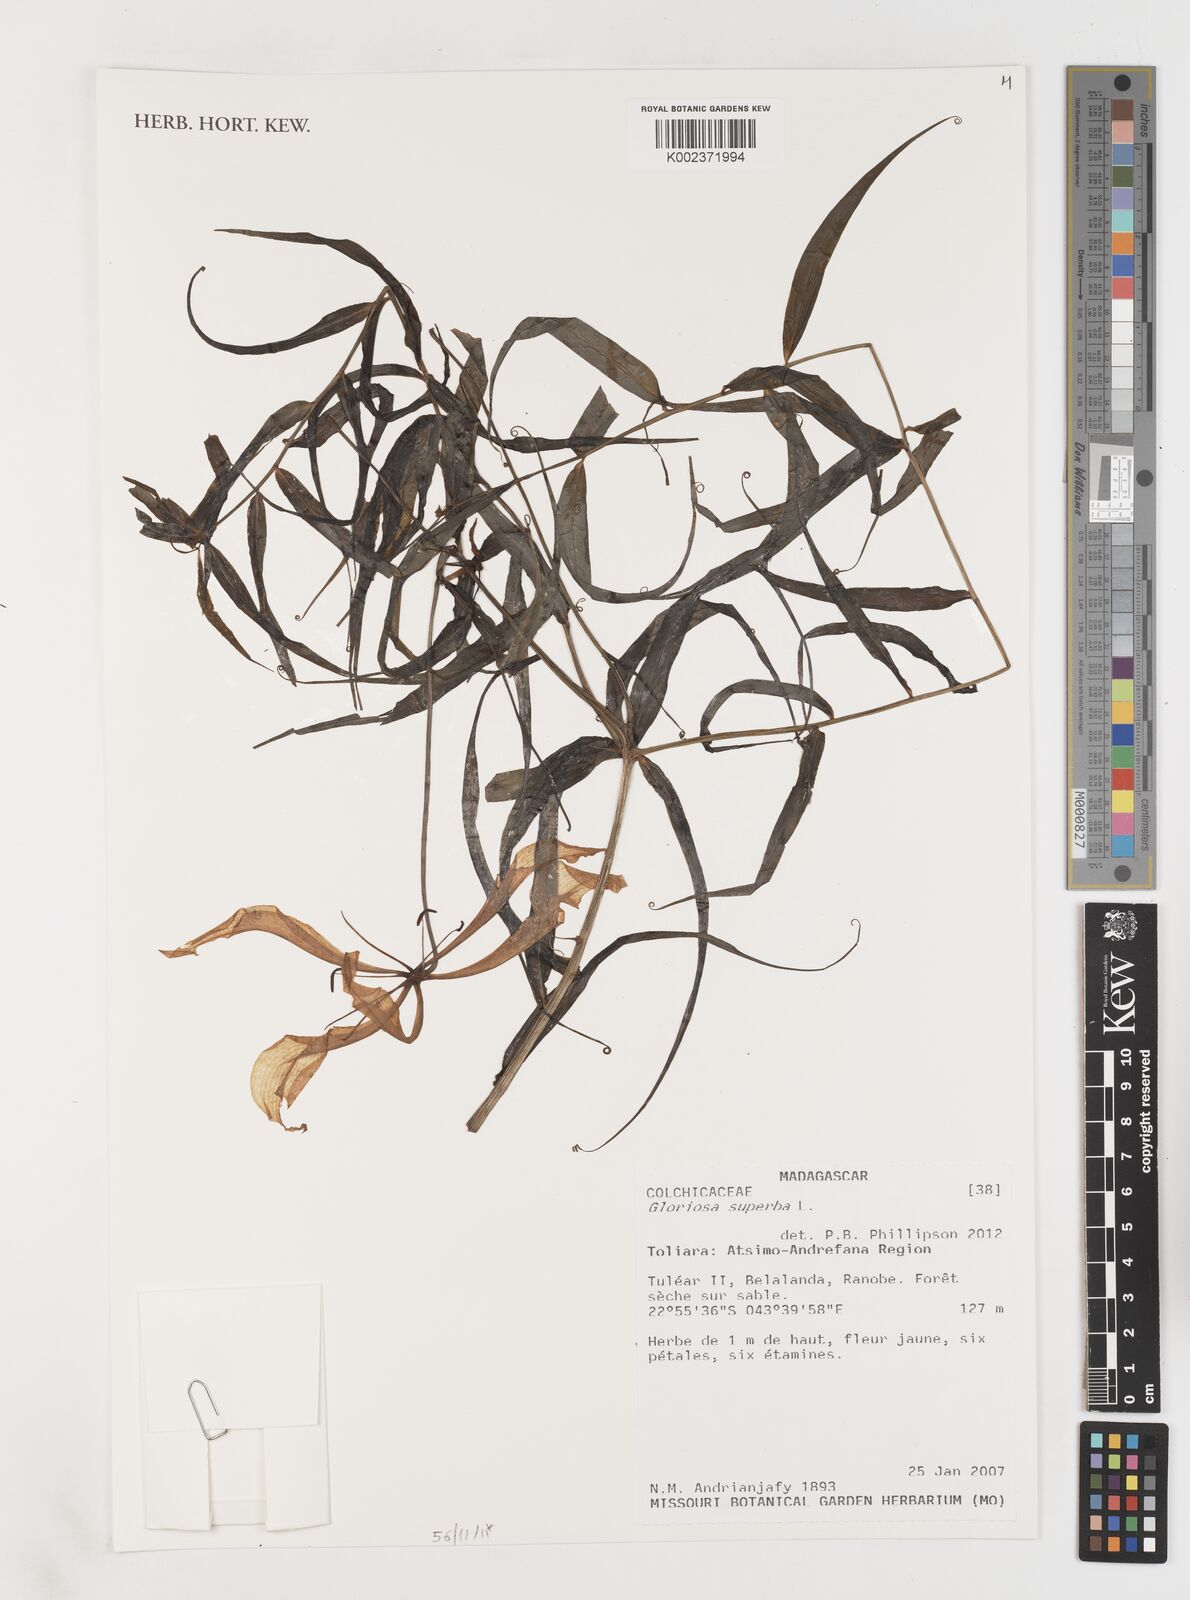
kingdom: Plantae
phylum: Tracheophyta
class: Liliopsida
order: Liliales
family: Colchicaceae
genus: Gloriosa
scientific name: Gloriosa superba
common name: Flame lily
